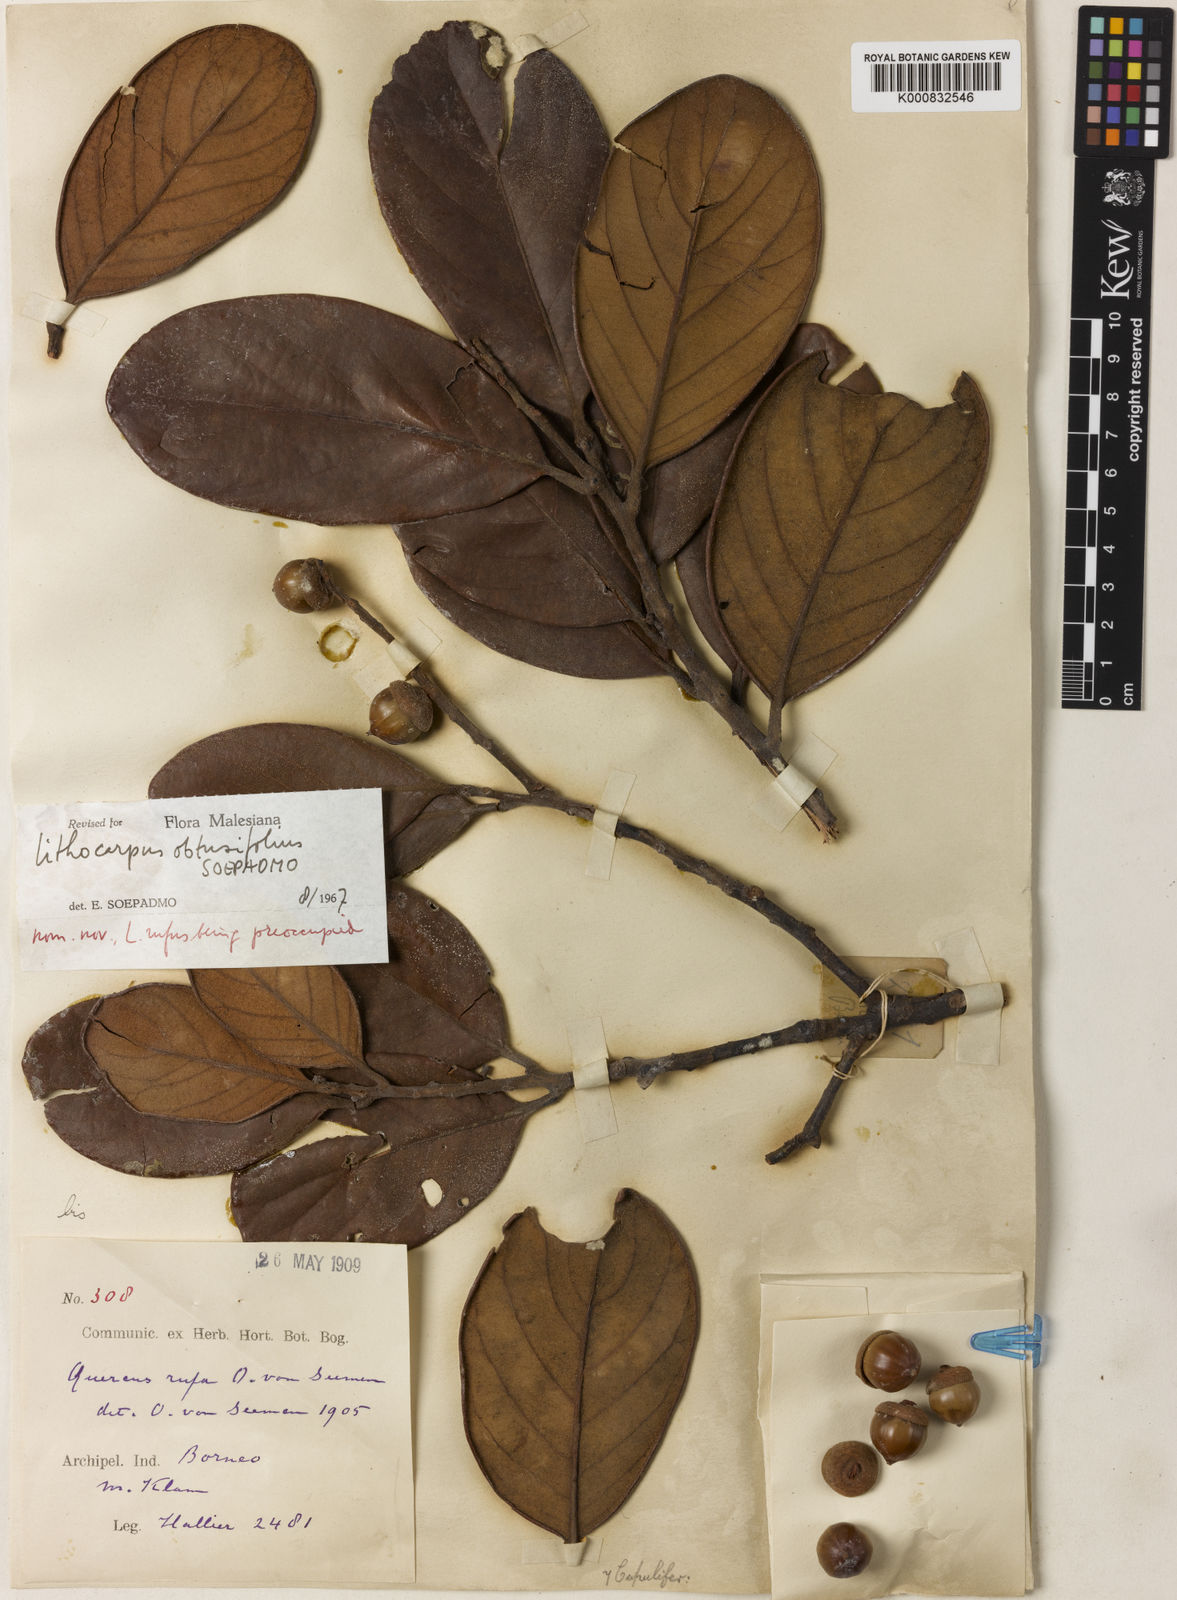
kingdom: Plantae
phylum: Tracheophyta
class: Magnoliopsida
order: Fagales
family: Fagaceae
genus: Lithocarpus
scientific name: Lithocarpus rufus
